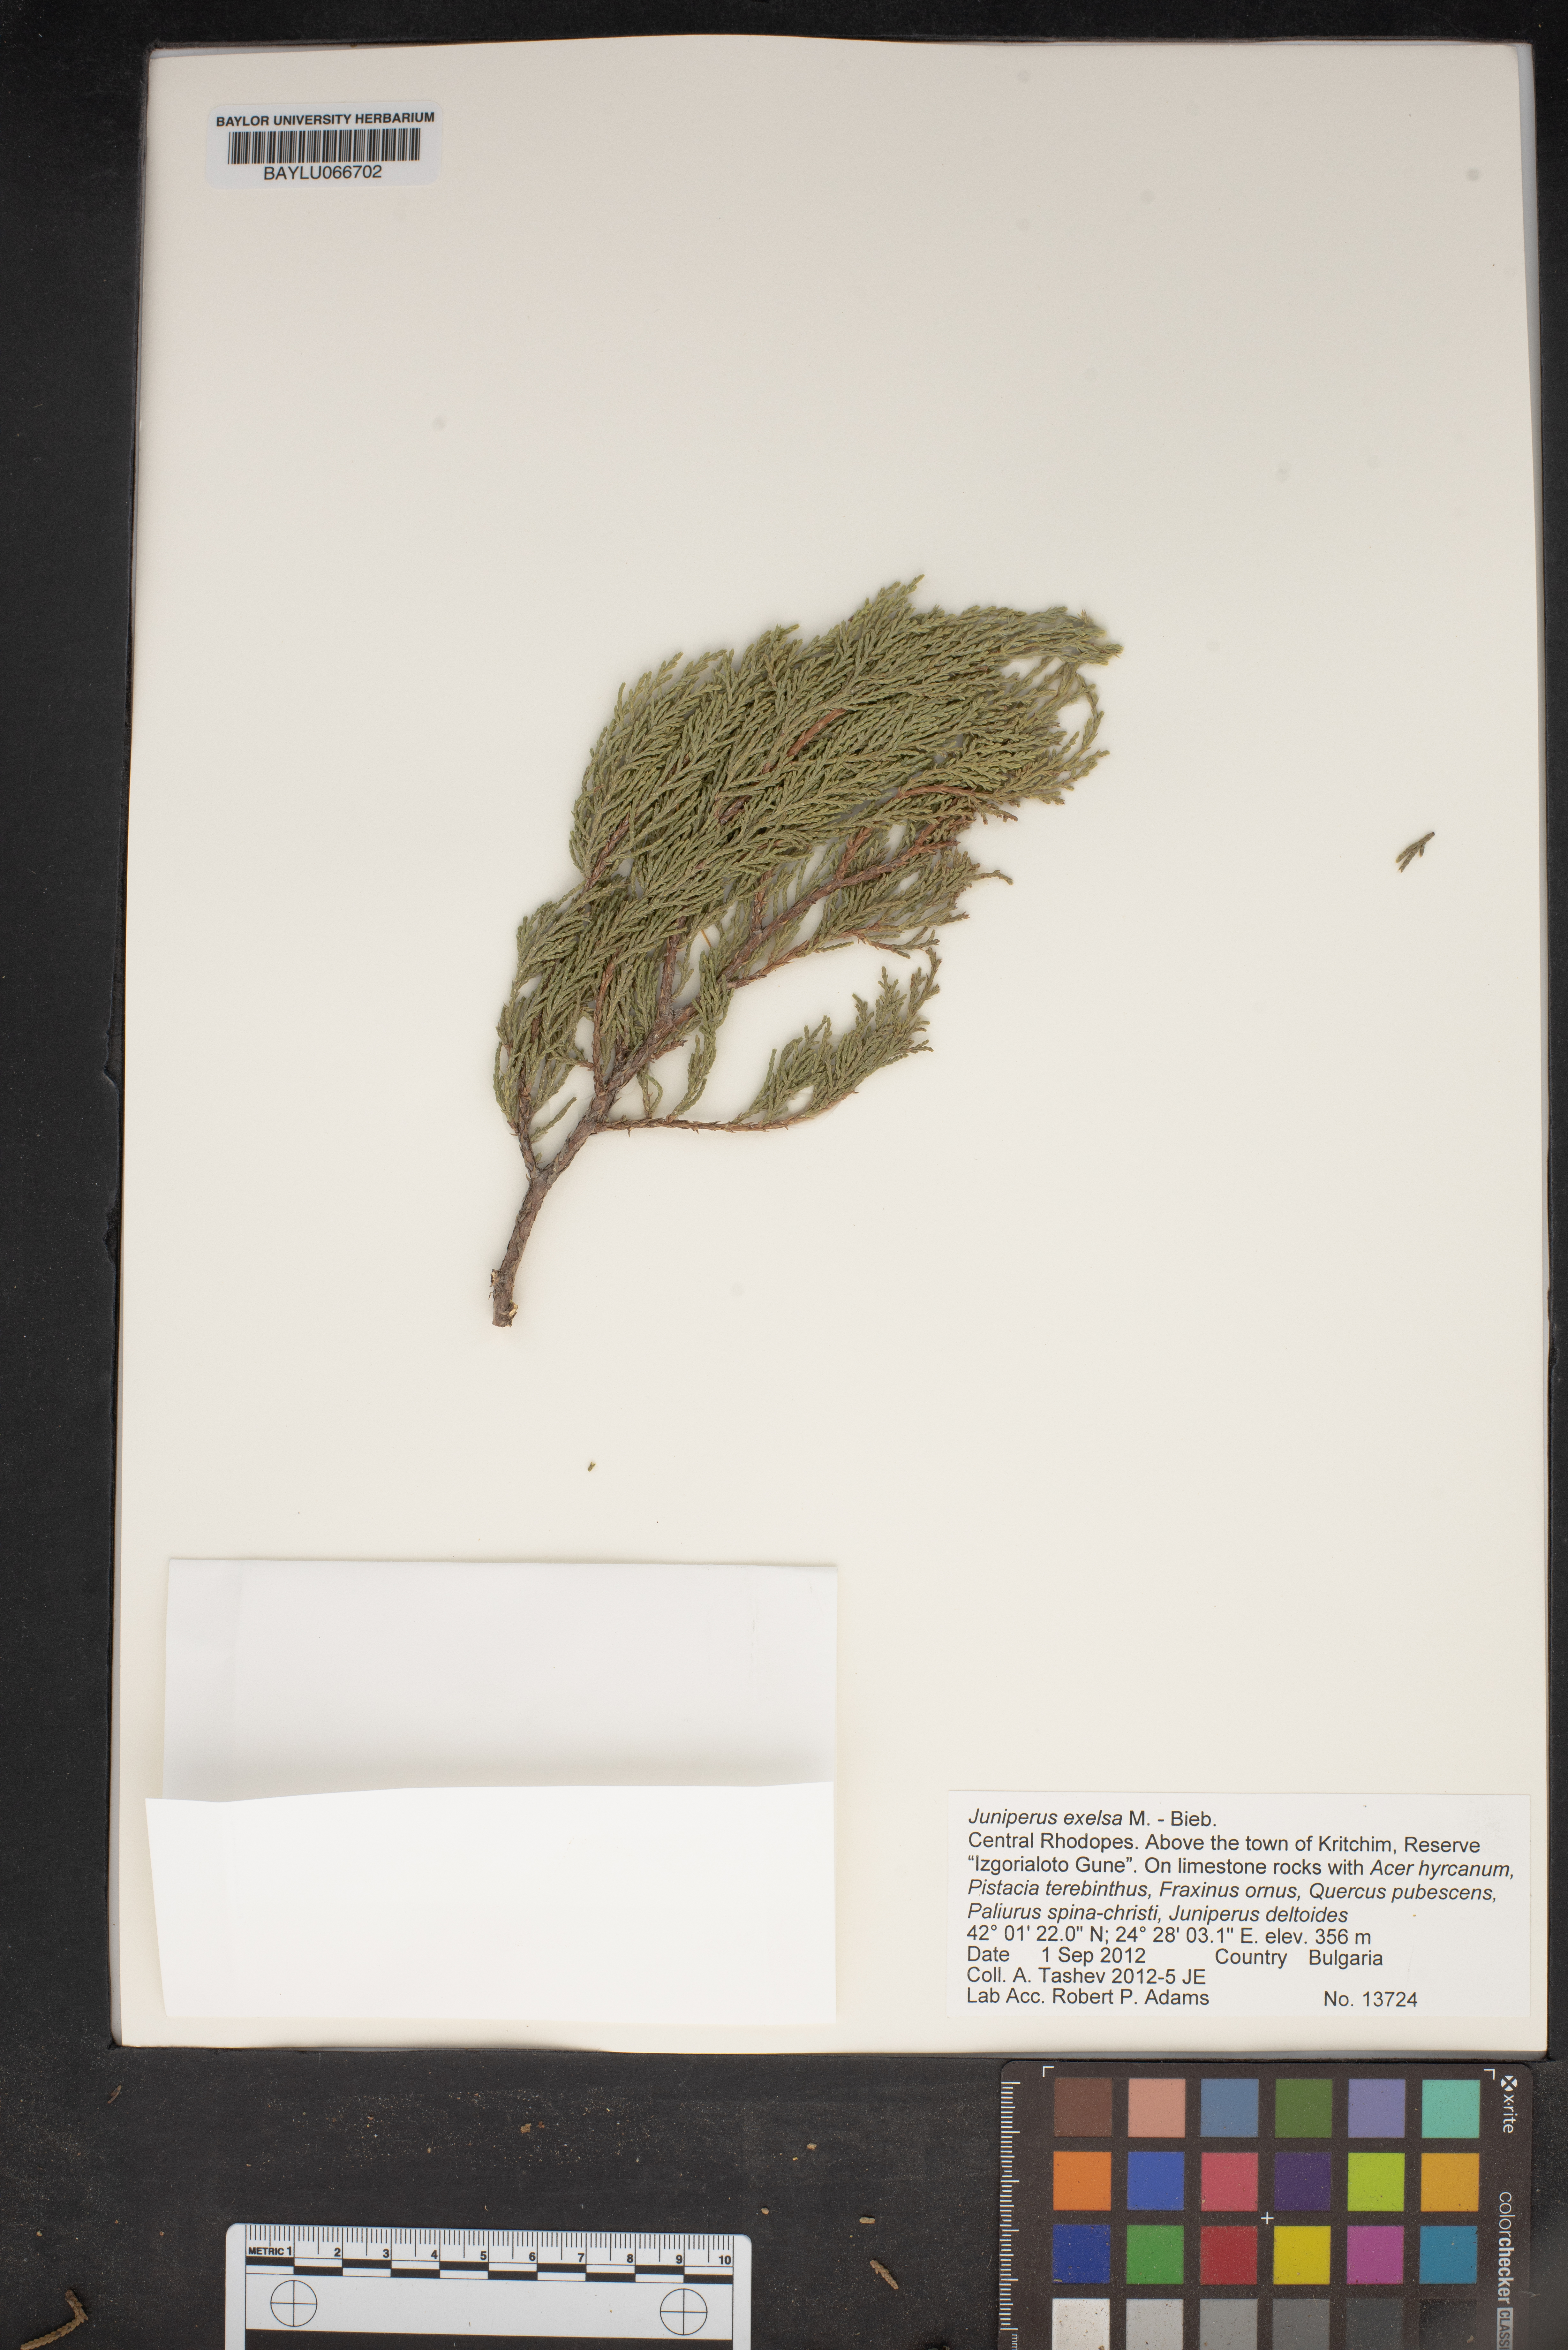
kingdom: Plantae
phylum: Tracheophyta
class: Pinopsida
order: Pinales
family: Cupressaceae
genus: Juniperus
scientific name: Juniperus excelsa
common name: Crimean juniper
